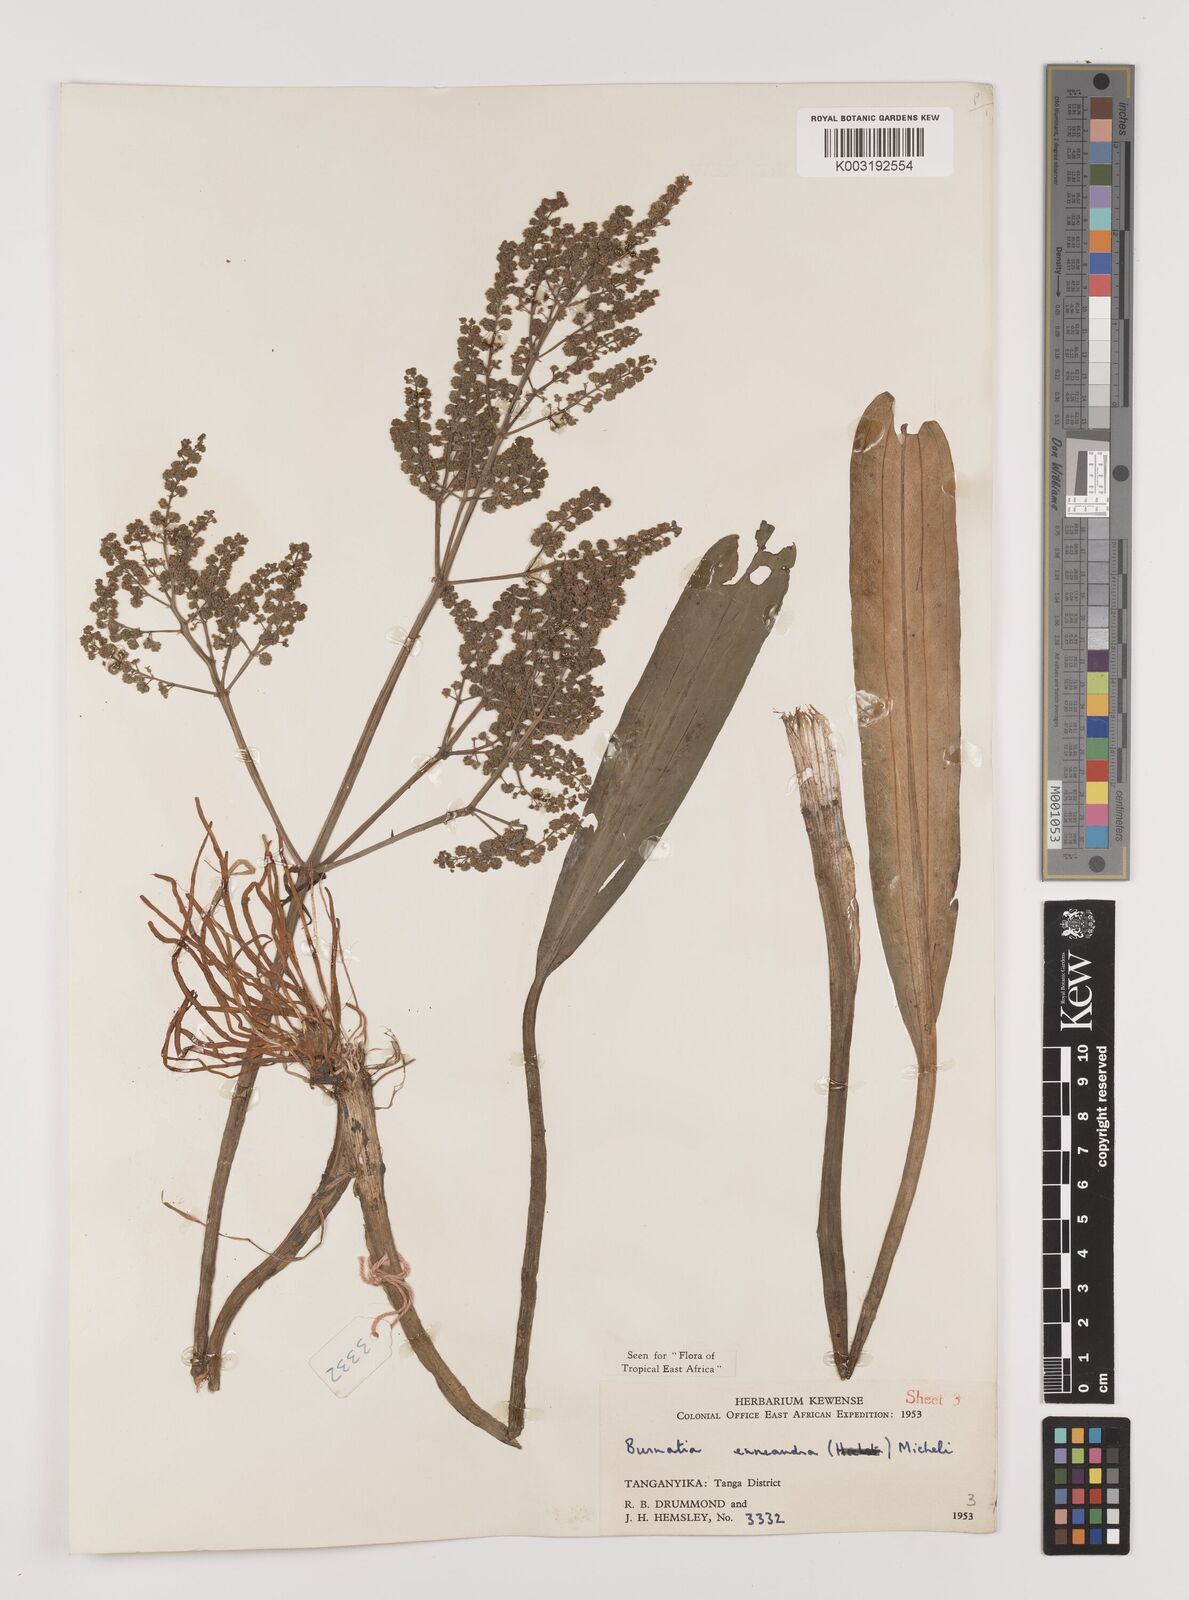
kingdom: Plantae
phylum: Tracheophyta
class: Liliopsida
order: Alismatales
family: Alismataceae
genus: Burnatia
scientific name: Burnatia enneandra
